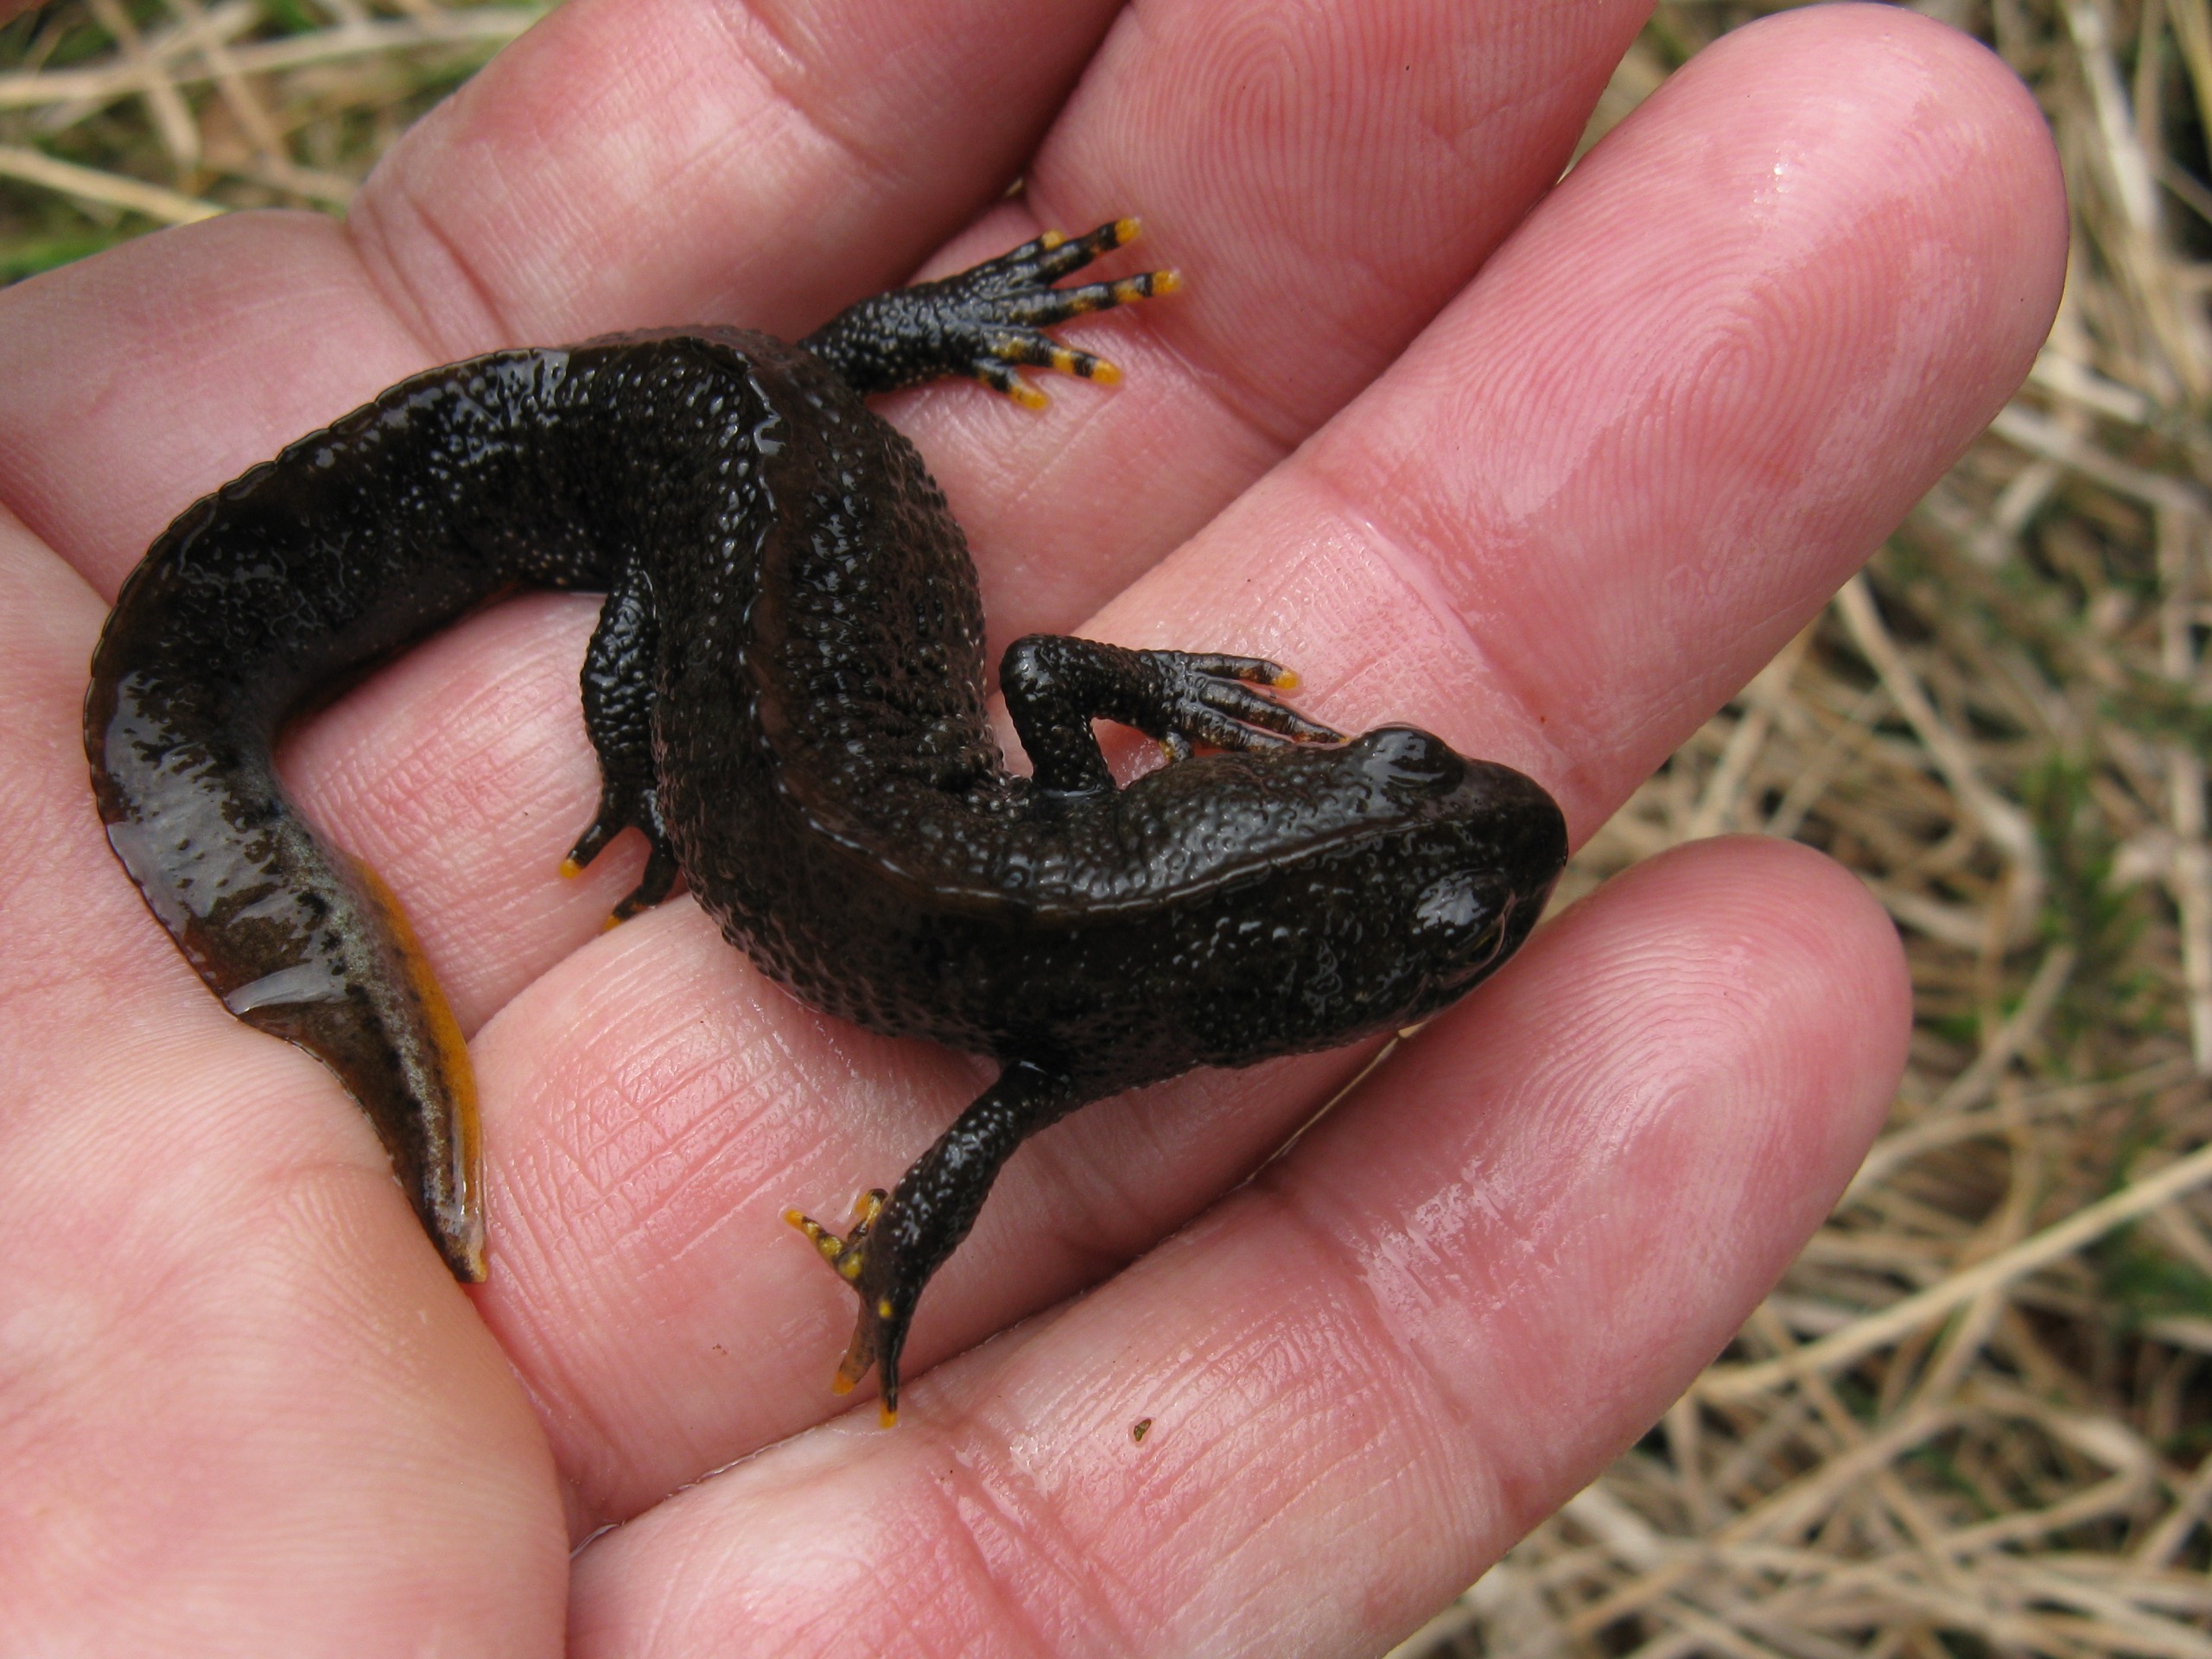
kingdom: Animalia
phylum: Chordata
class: Amphibia
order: Caudata
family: Salamandridae
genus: Triturus
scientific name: Triturus cristatus
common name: Stor vandsalamander
